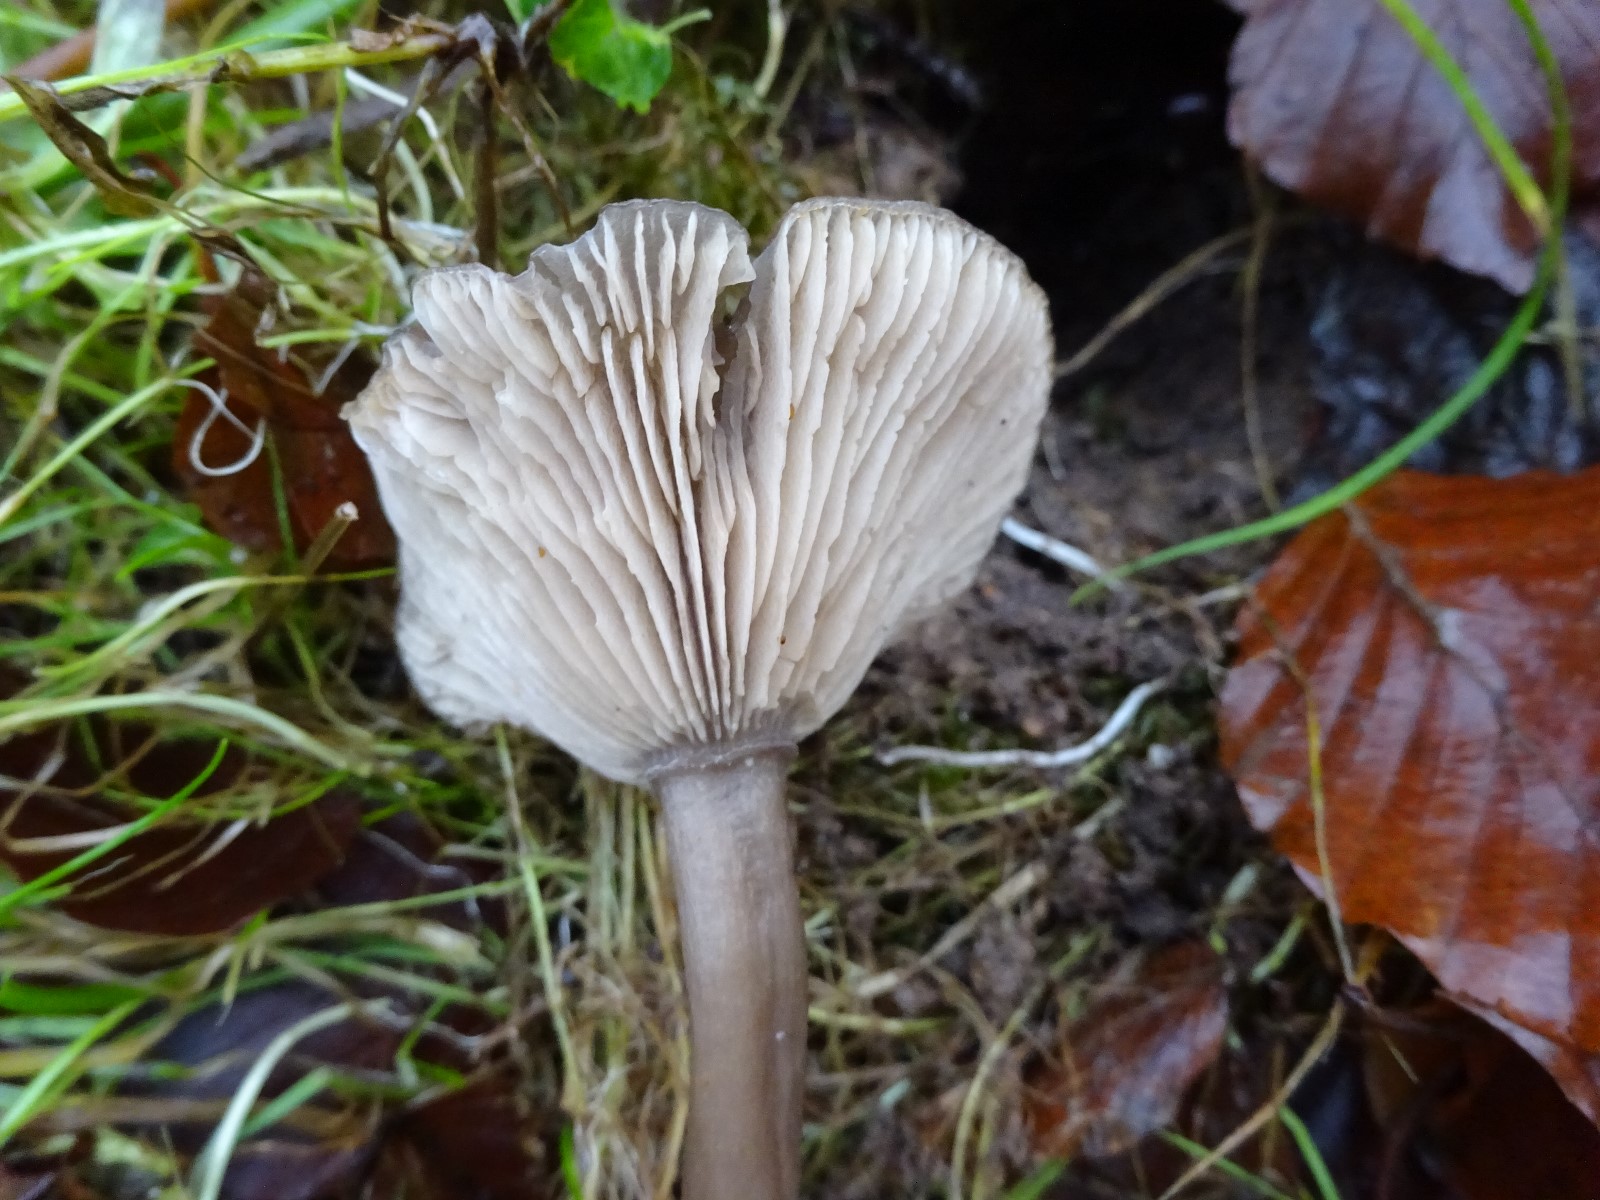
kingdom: Fungi
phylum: Basidiomycota
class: Agaricomycetes
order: Agaricales
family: Pseudoclitocybaceae
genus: Pseudoclitocybe
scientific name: Pseudoclitocybe cyathiformis
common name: almindelig bægertragthat
